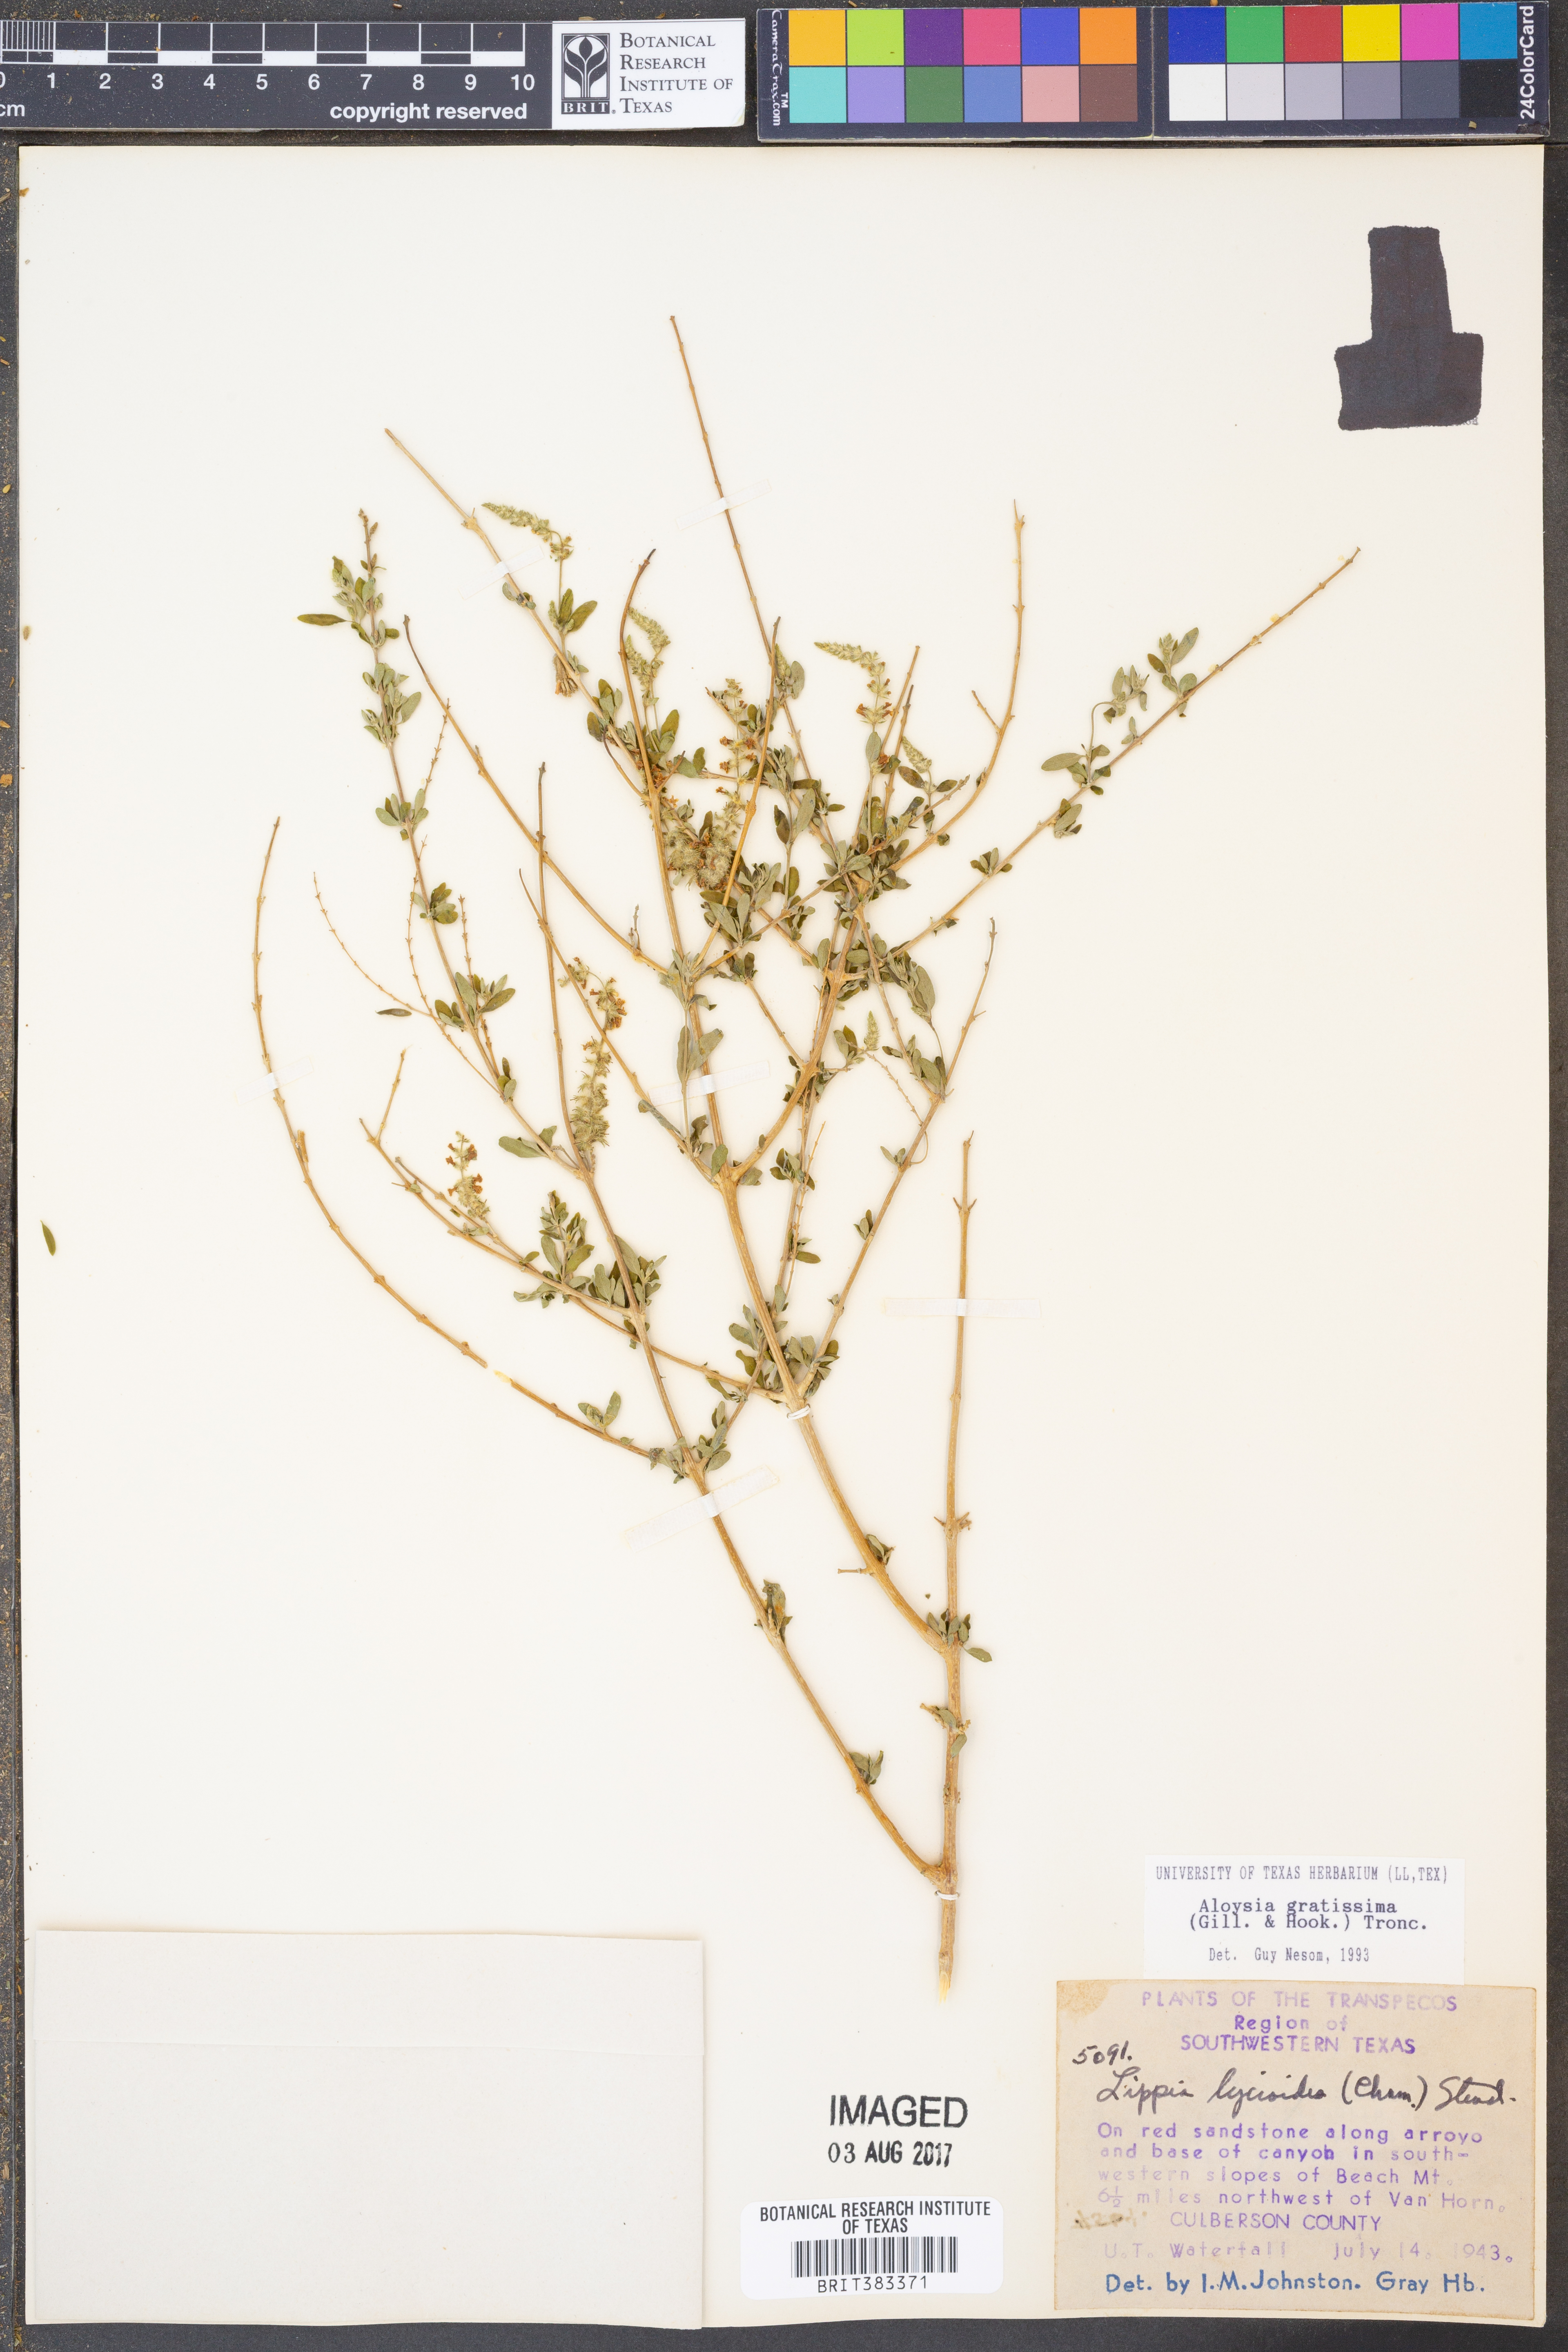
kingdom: Plantae
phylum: Tracheophyta
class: Magnoliopsida
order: Lamiales
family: Verbenaceae
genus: Aloysia
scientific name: Aloysia gratissima
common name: Common bee-brush
